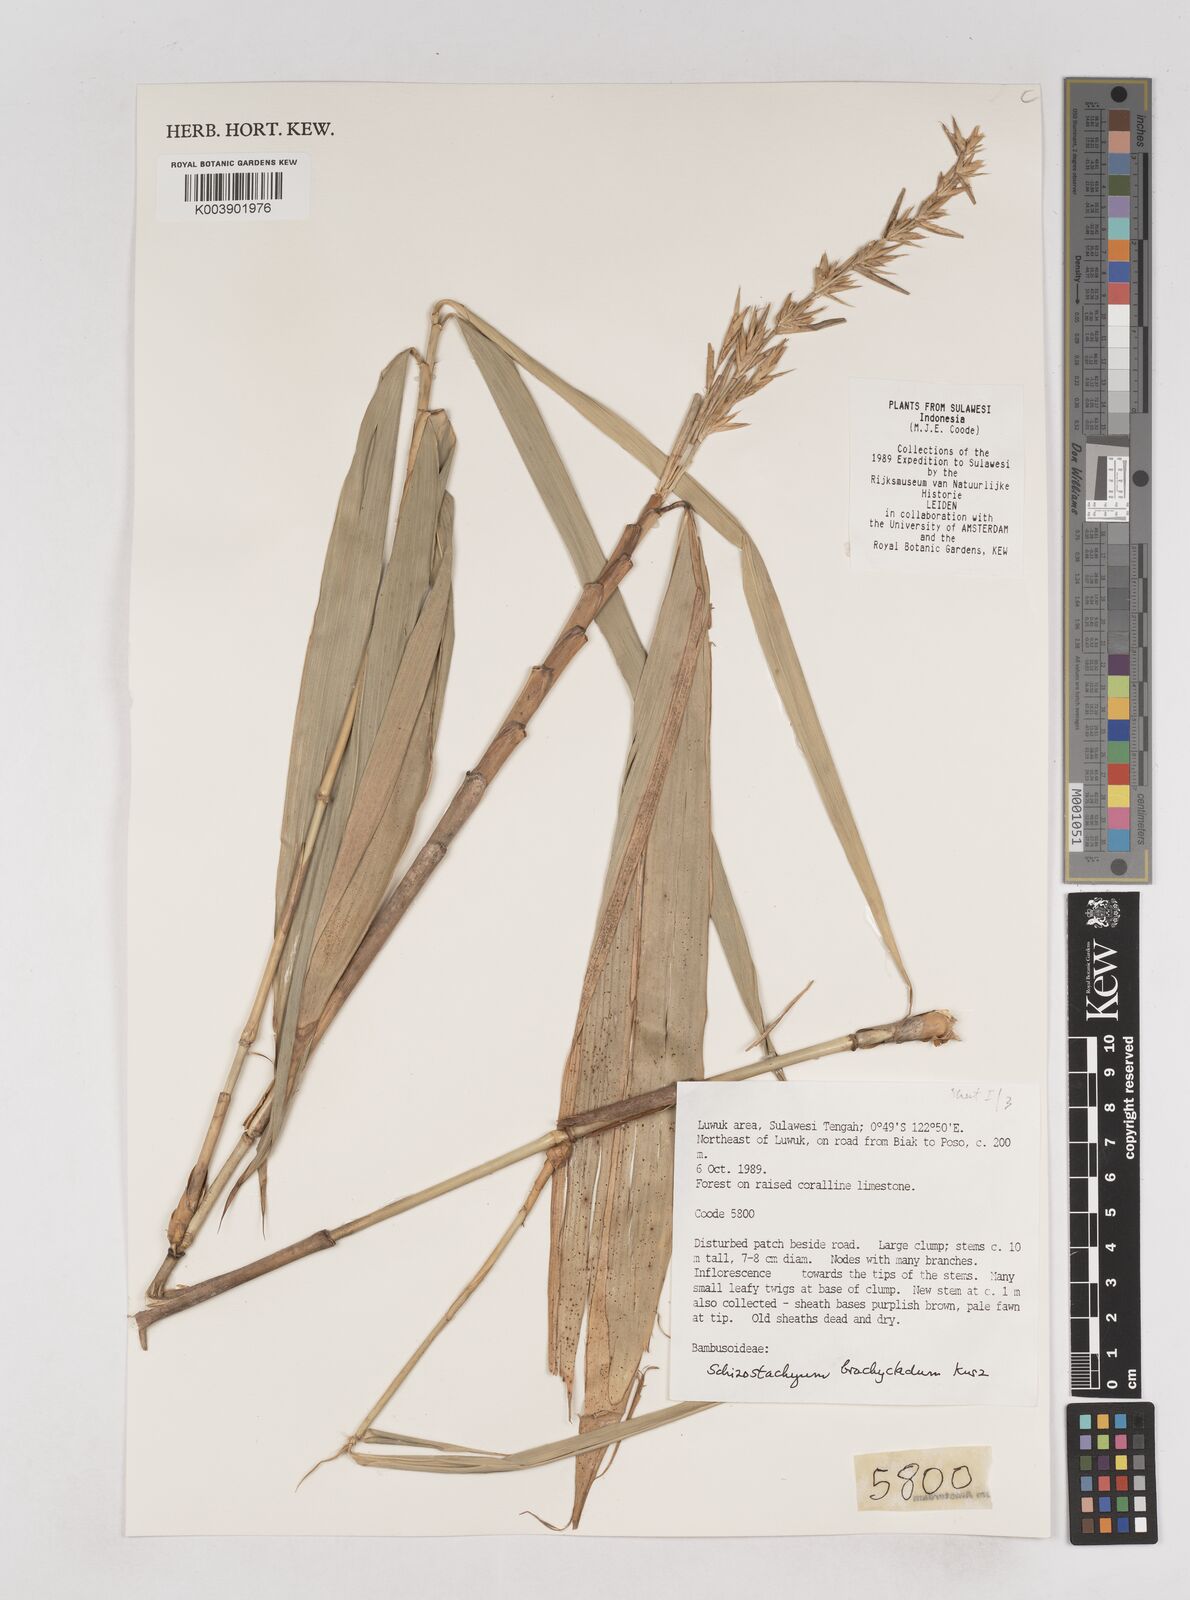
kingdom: Plantae
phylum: Tracheophyta
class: Liliopsida
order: Poales
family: Poaceae
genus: Schizostachyum
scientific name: Schizostachyum brachycladum
